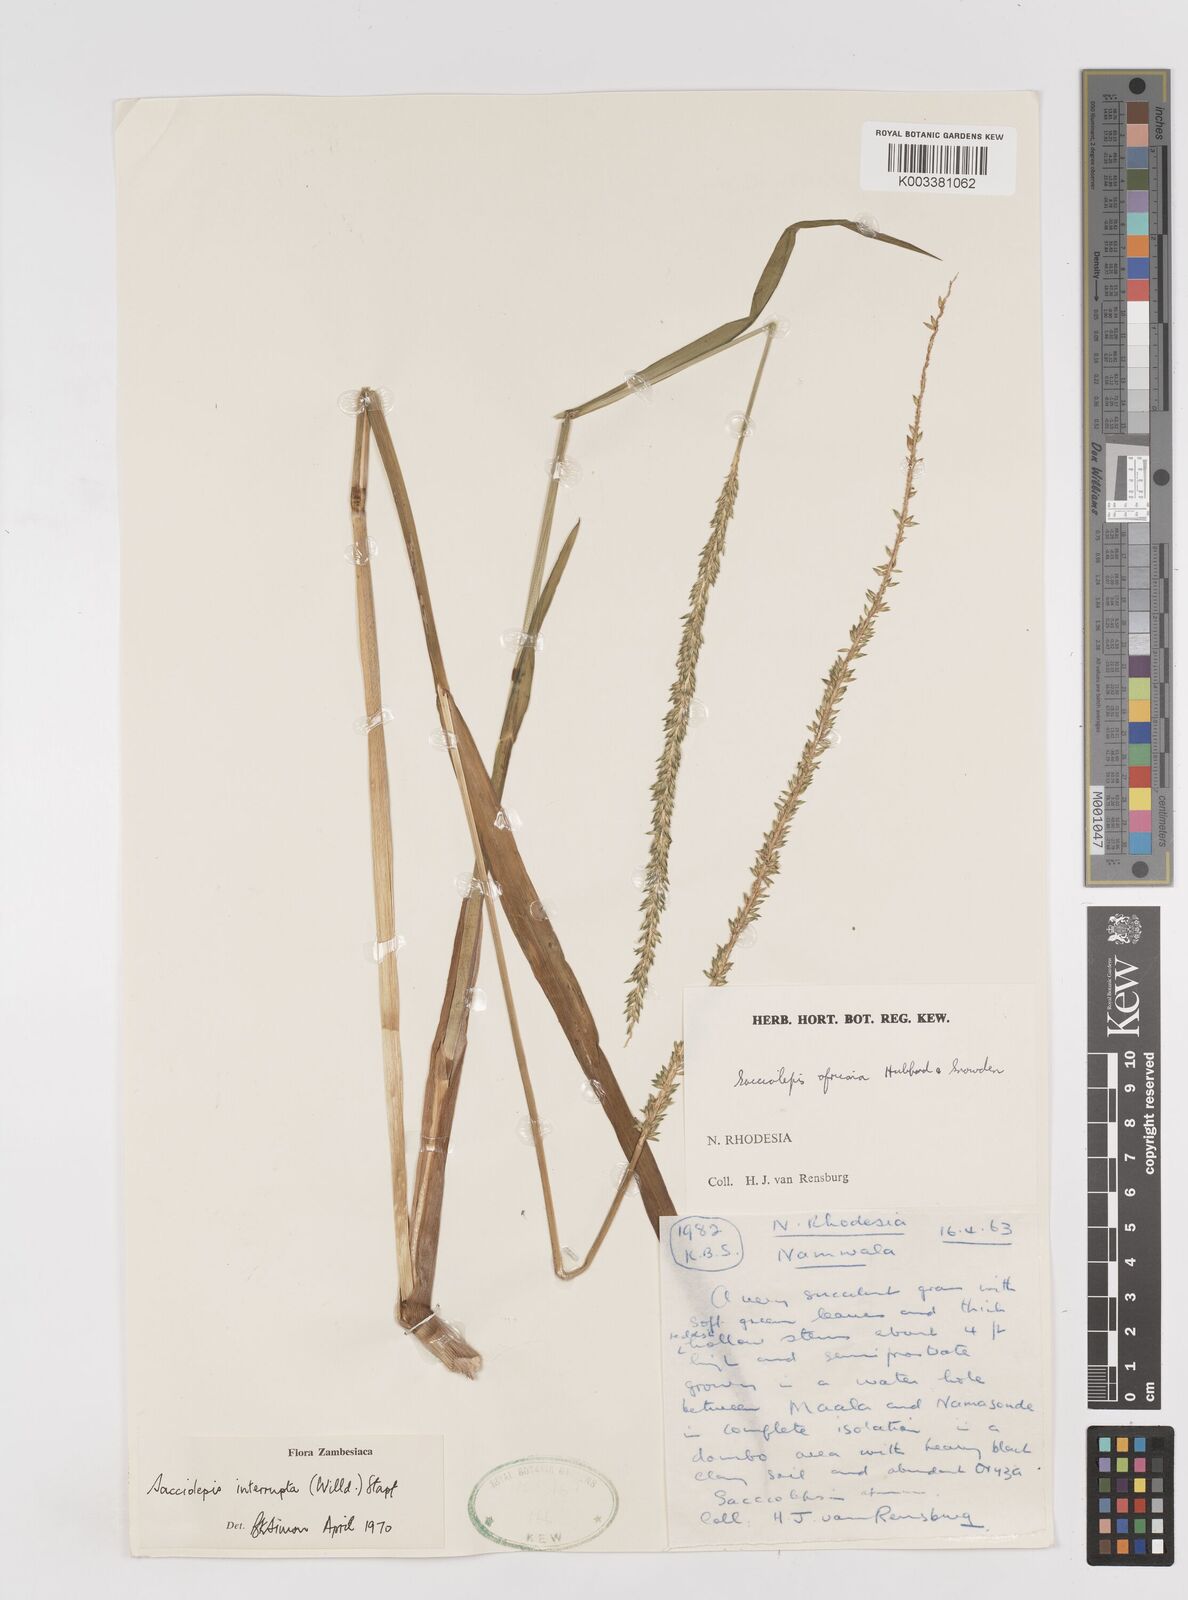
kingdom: Plantae
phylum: Tracheophyta
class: Liliopsida
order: Poales
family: Poaceae
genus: Sacciolepis
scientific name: Sacciolepis interrupta
